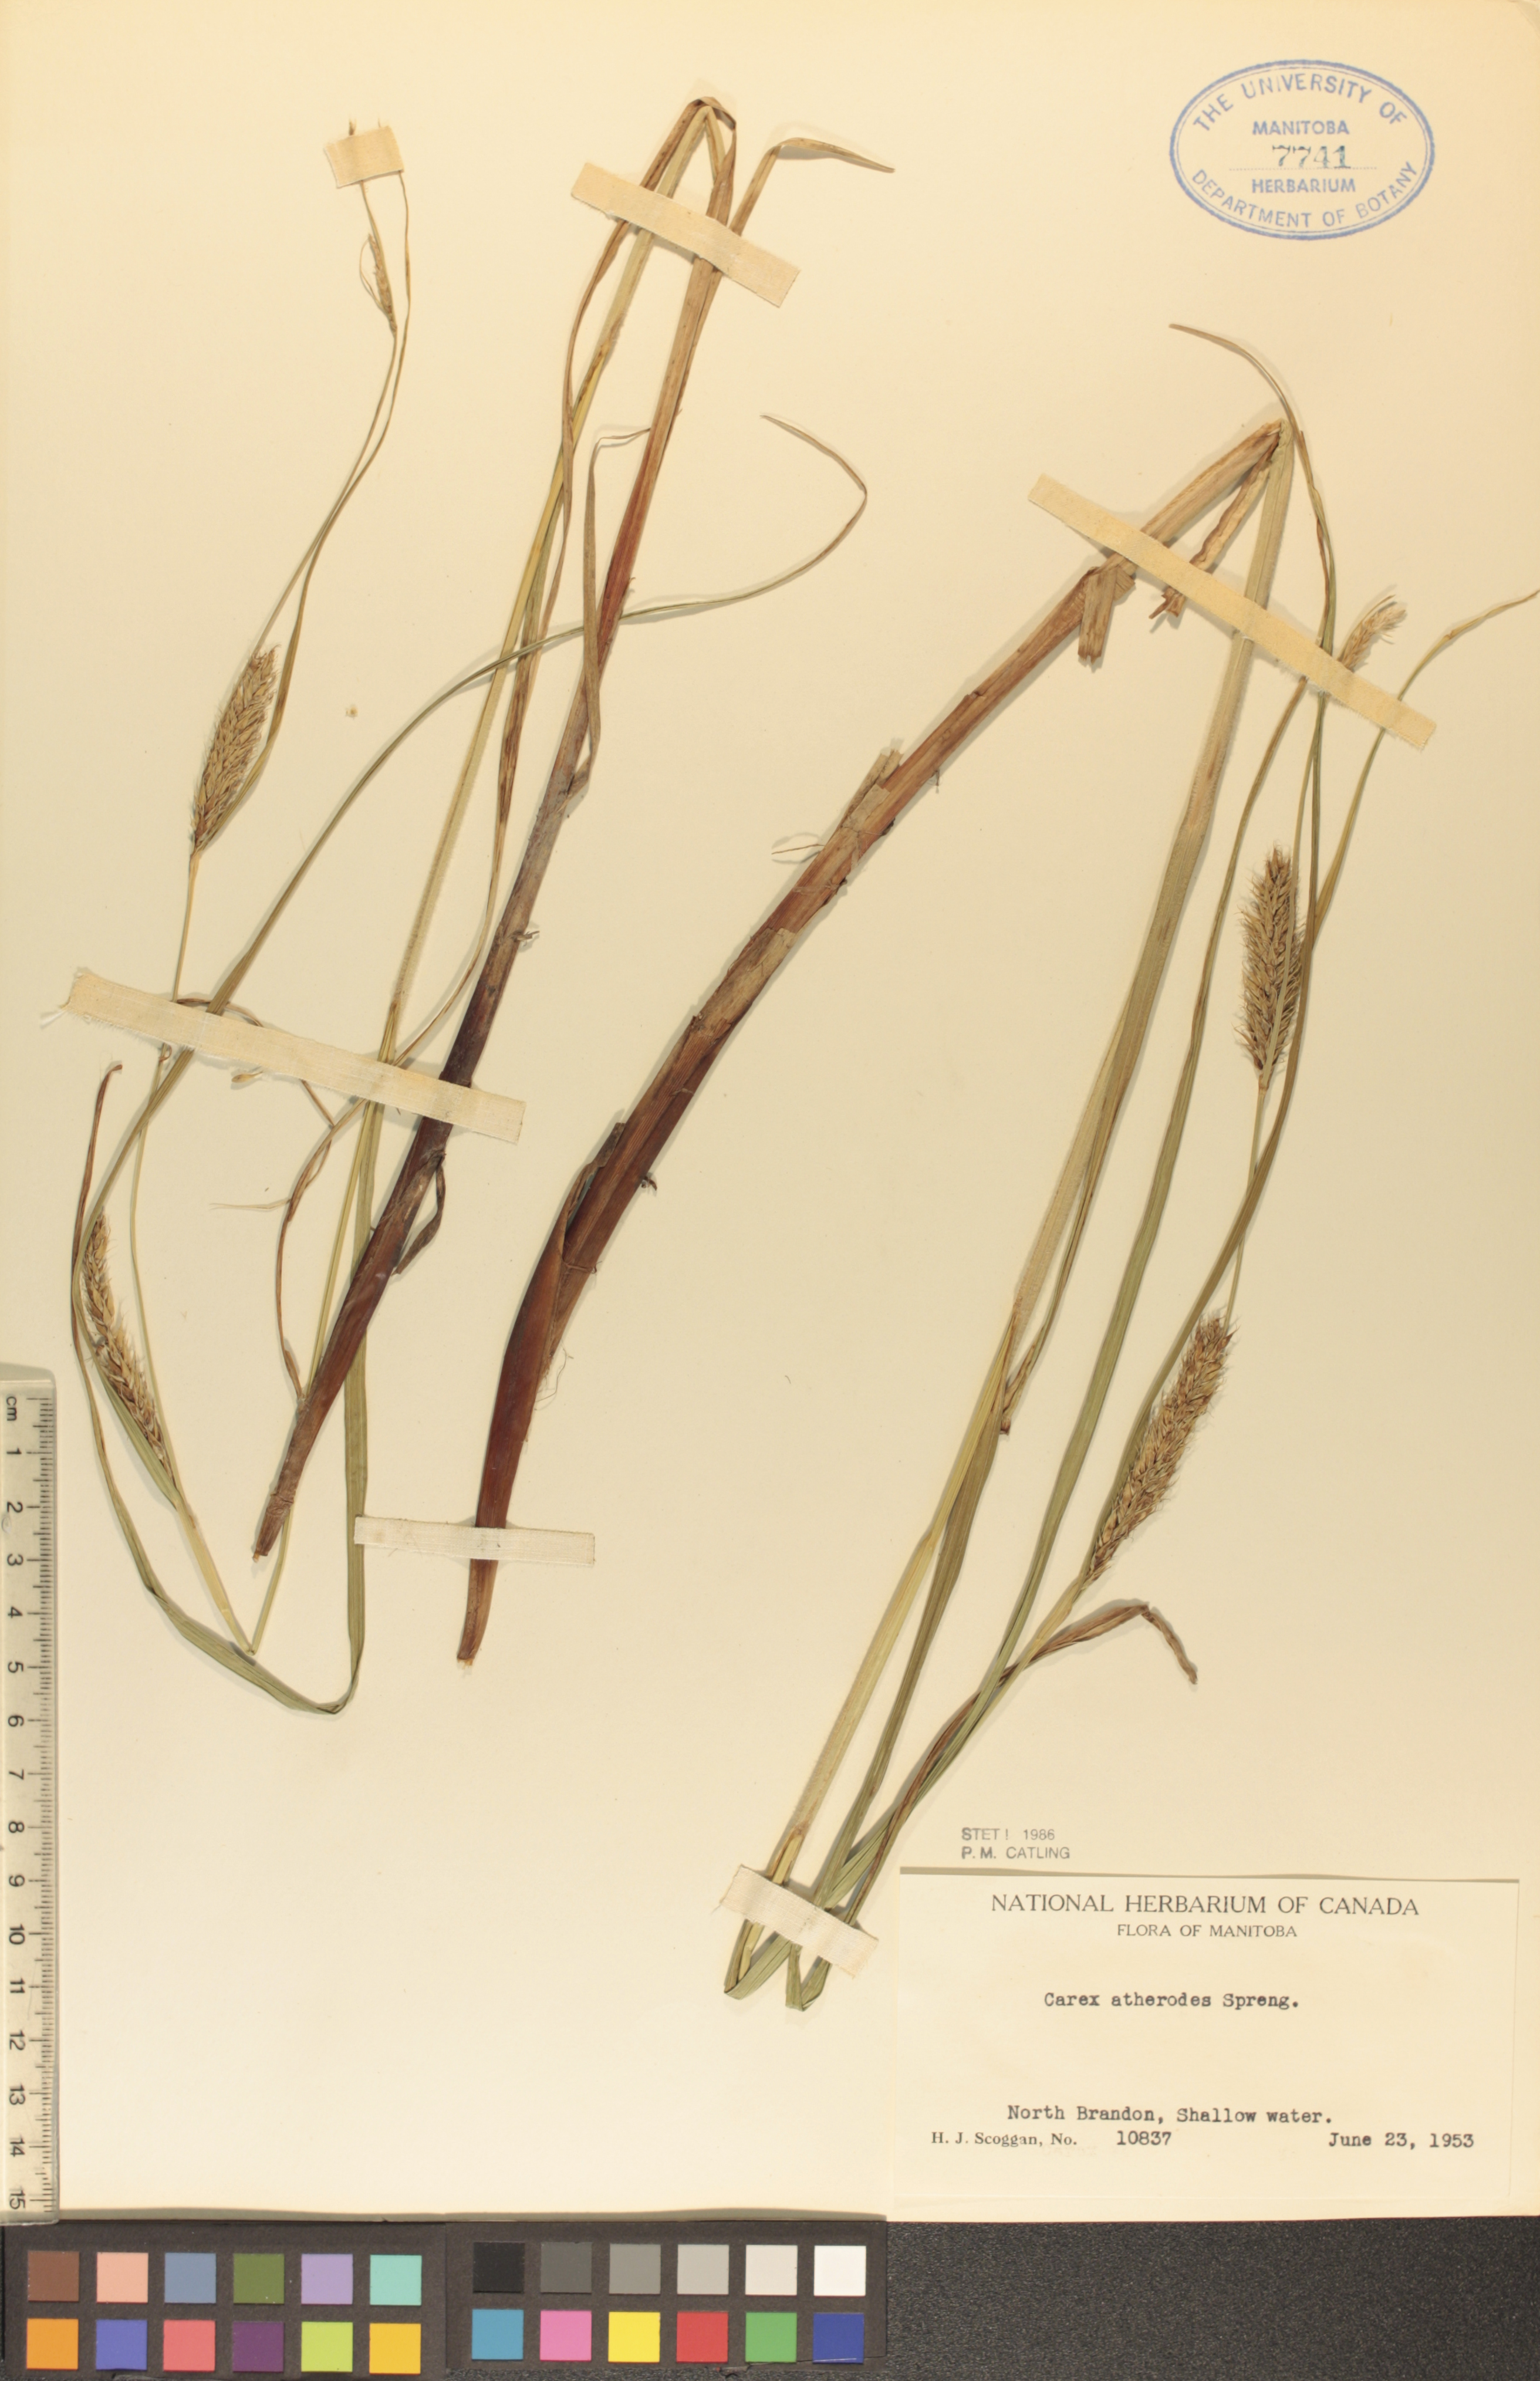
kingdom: Plantae
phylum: Tracheophyta
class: Liliopsida
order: Poales
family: Cyperaceae
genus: Carex
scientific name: Carex atherodes
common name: Wheat sedge
